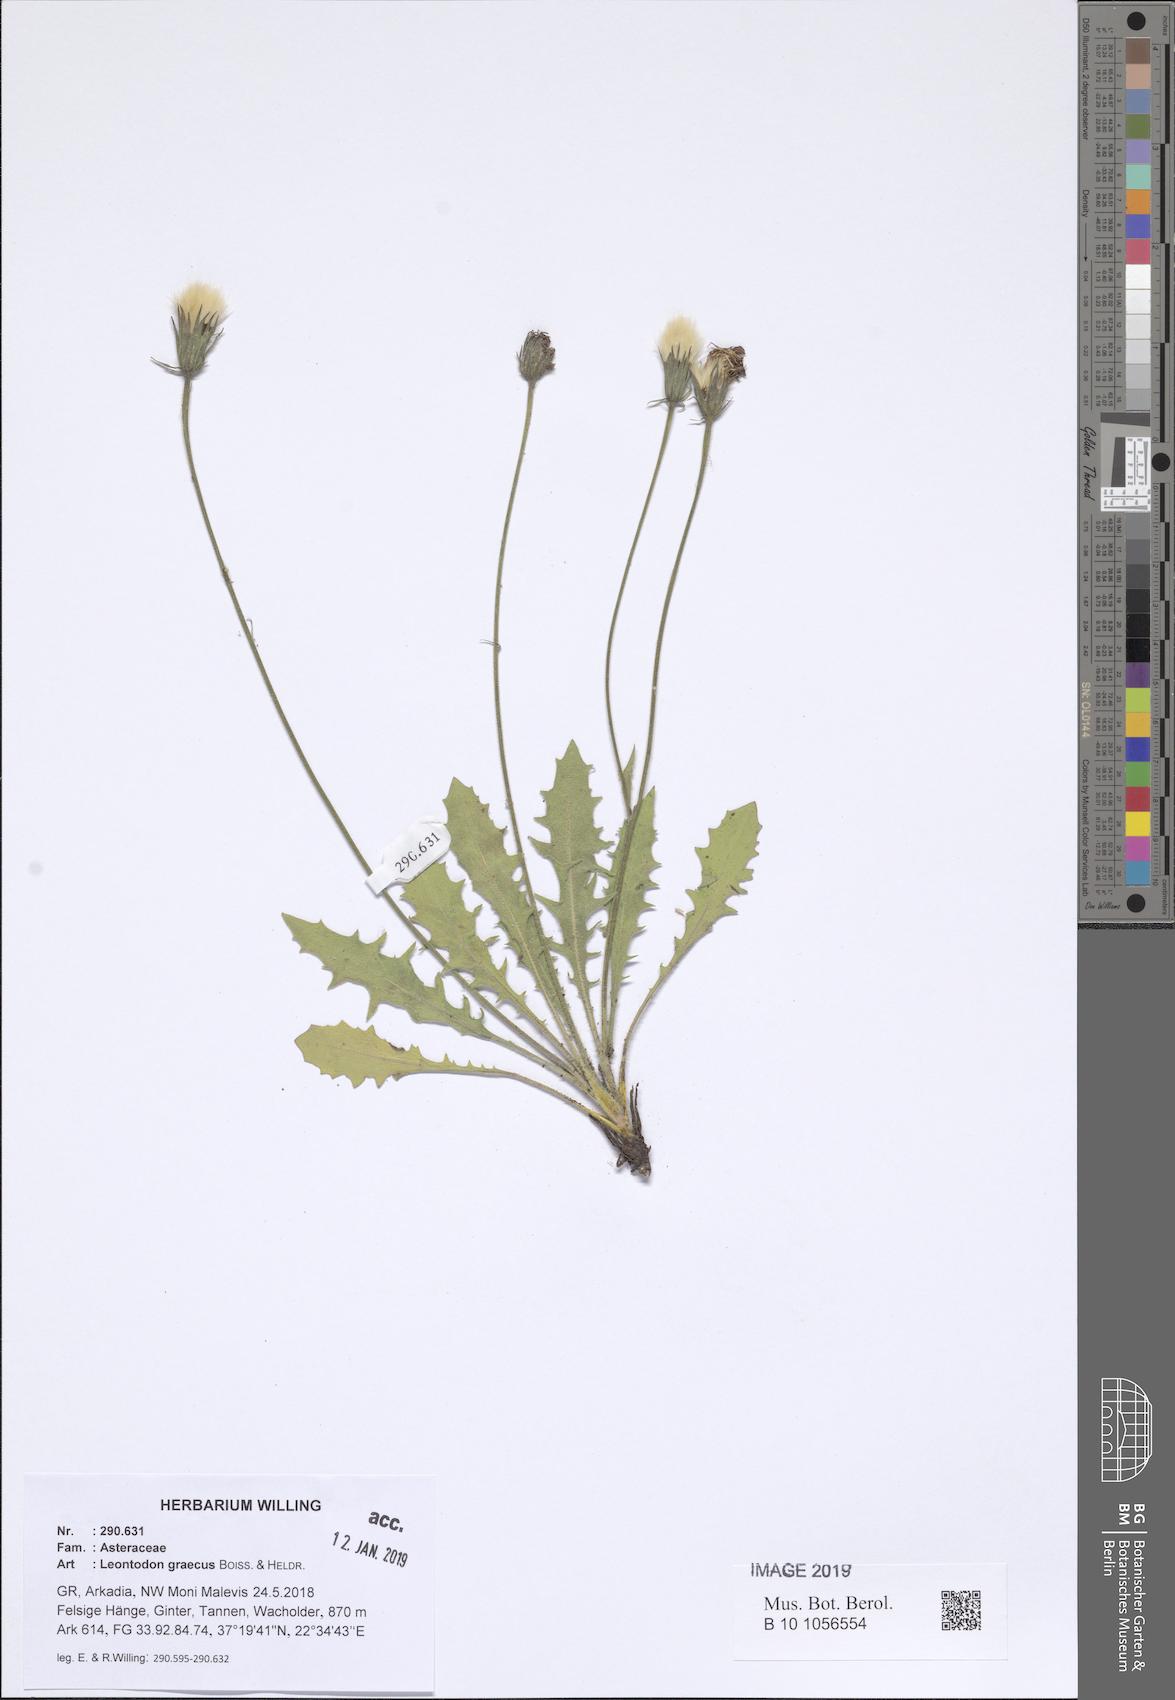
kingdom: Plantae
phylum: Tracheophyta
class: Magnoliopsida
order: Asterales
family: Asteraceae
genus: Leontodon
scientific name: Leontodon graecus
